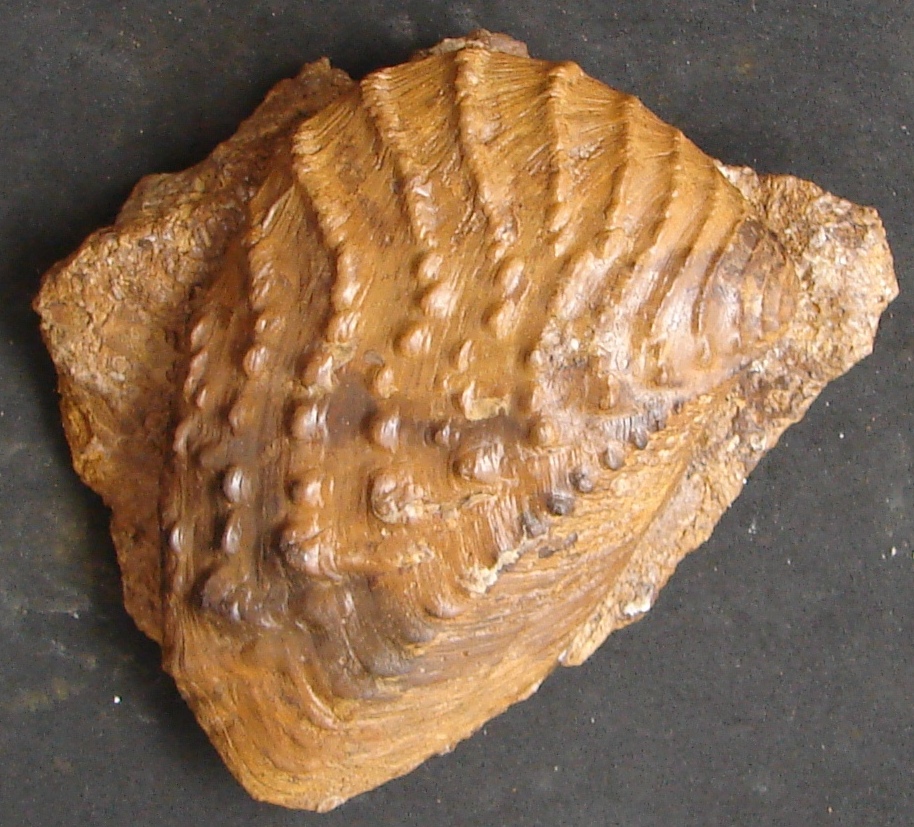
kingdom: Animalia
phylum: Mollusca
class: Bivalvia
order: Trigoniida
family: Myophorellidae
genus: Myophorella
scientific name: Myophorella Trigonia clavellata
